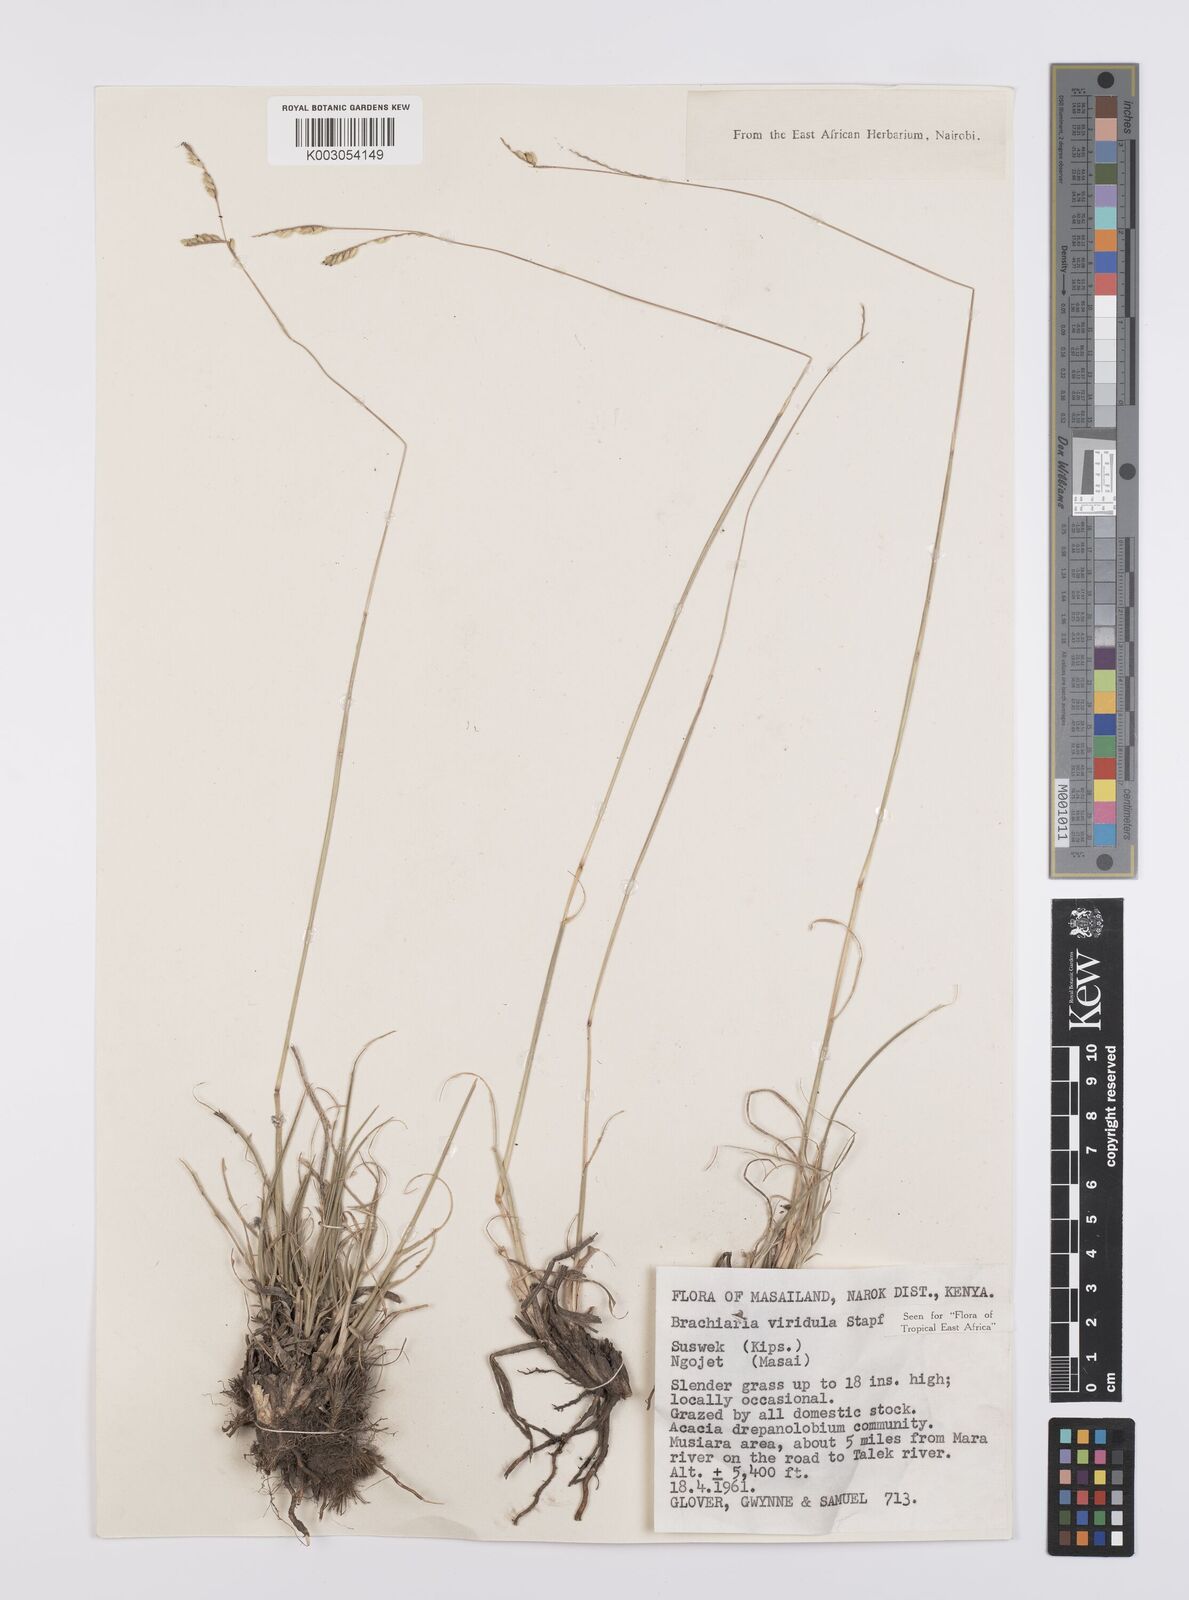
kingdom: Plantae
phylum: Tracheophyta
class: Liliopsida
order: Poales
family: Poaceae
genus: Urochloa
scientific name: Urochloa bovonei
